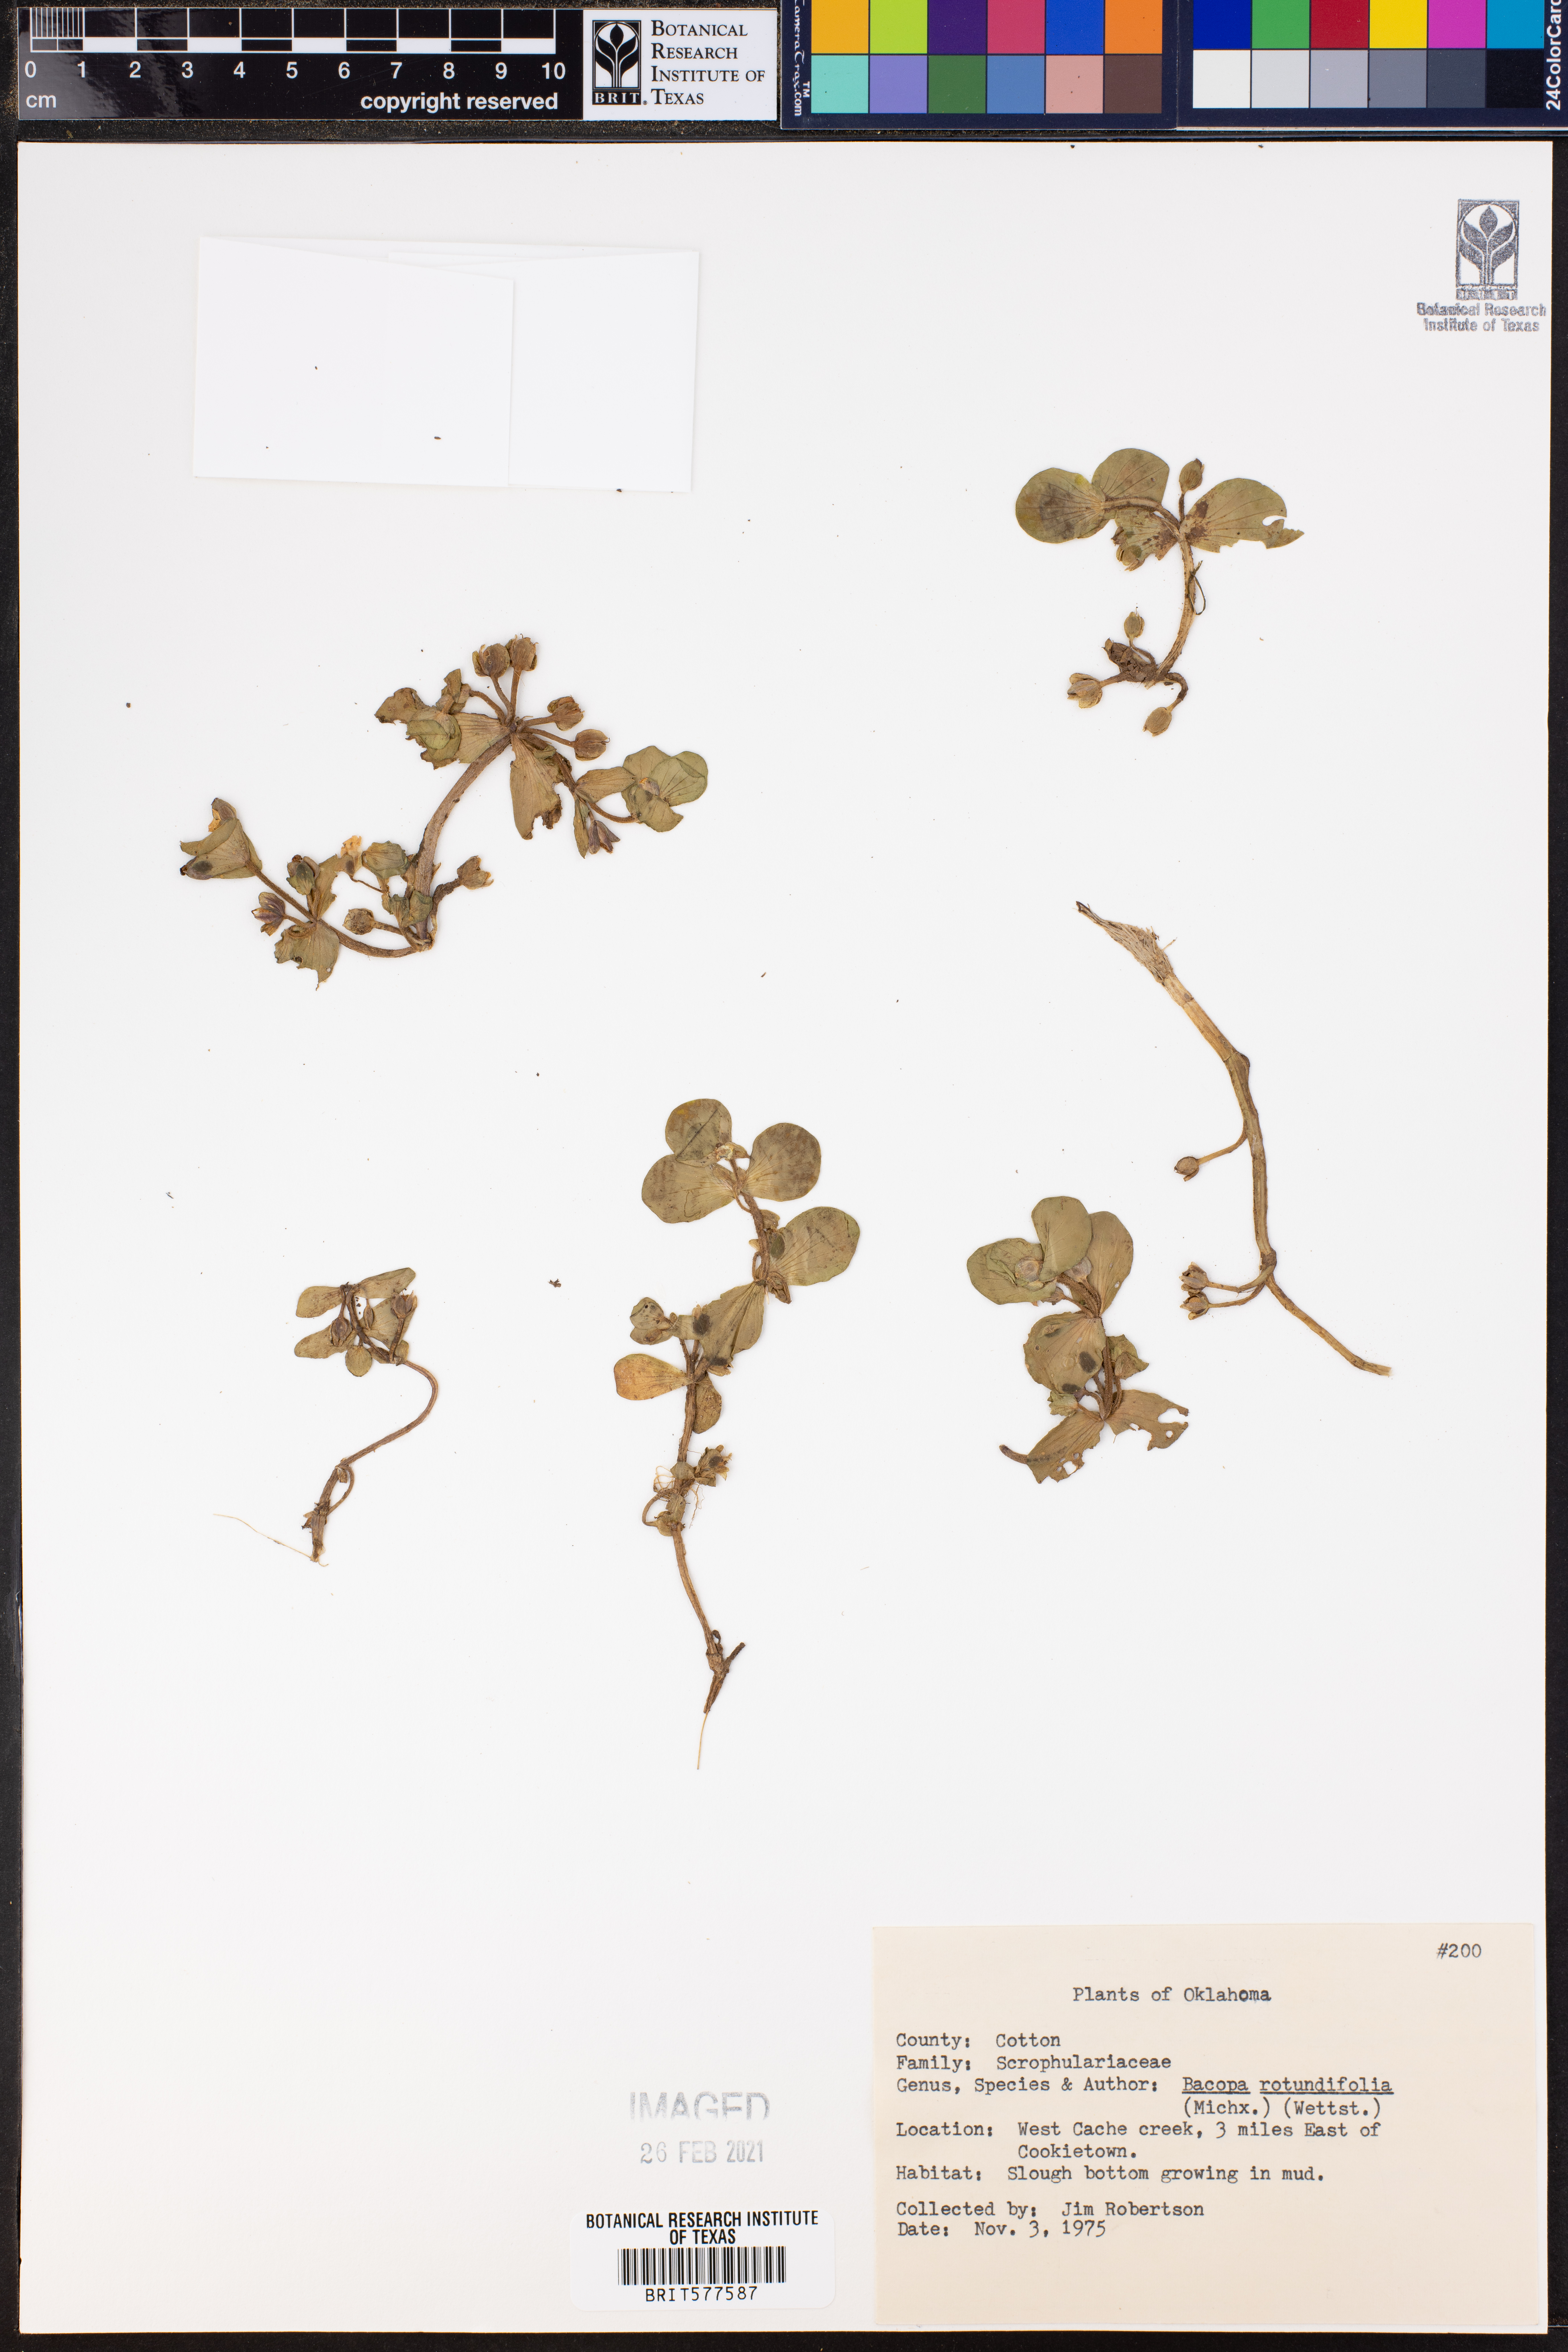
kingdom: Plantae
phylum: Tracheophyta
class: Magnoliopsida
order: Lamiales
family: Plantaginaceae
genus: Bacopa
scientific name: Bacopa rotundifolia
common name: Disc water hyssop
